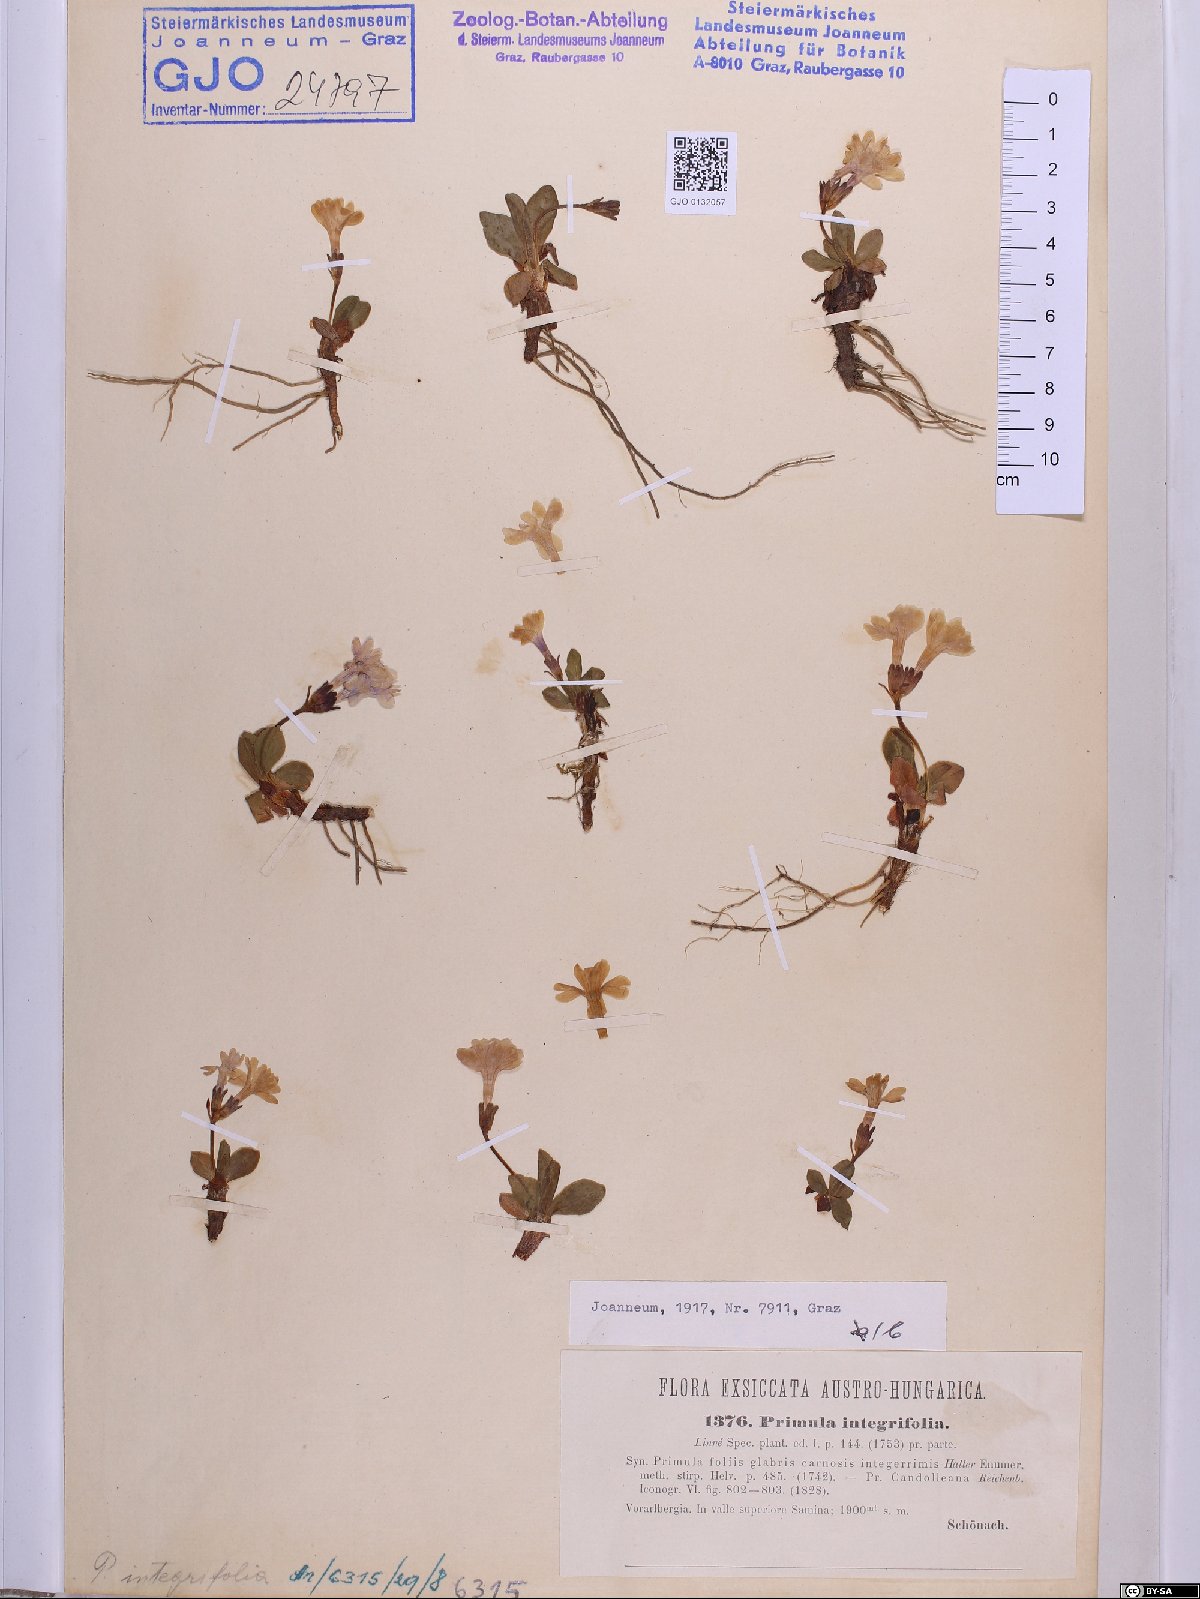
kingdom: Plantae
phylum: Tracheophyta
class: Magnoliopsida
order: Ericales
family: Primulaceae
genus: Primula
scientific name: Primula integrifolia
